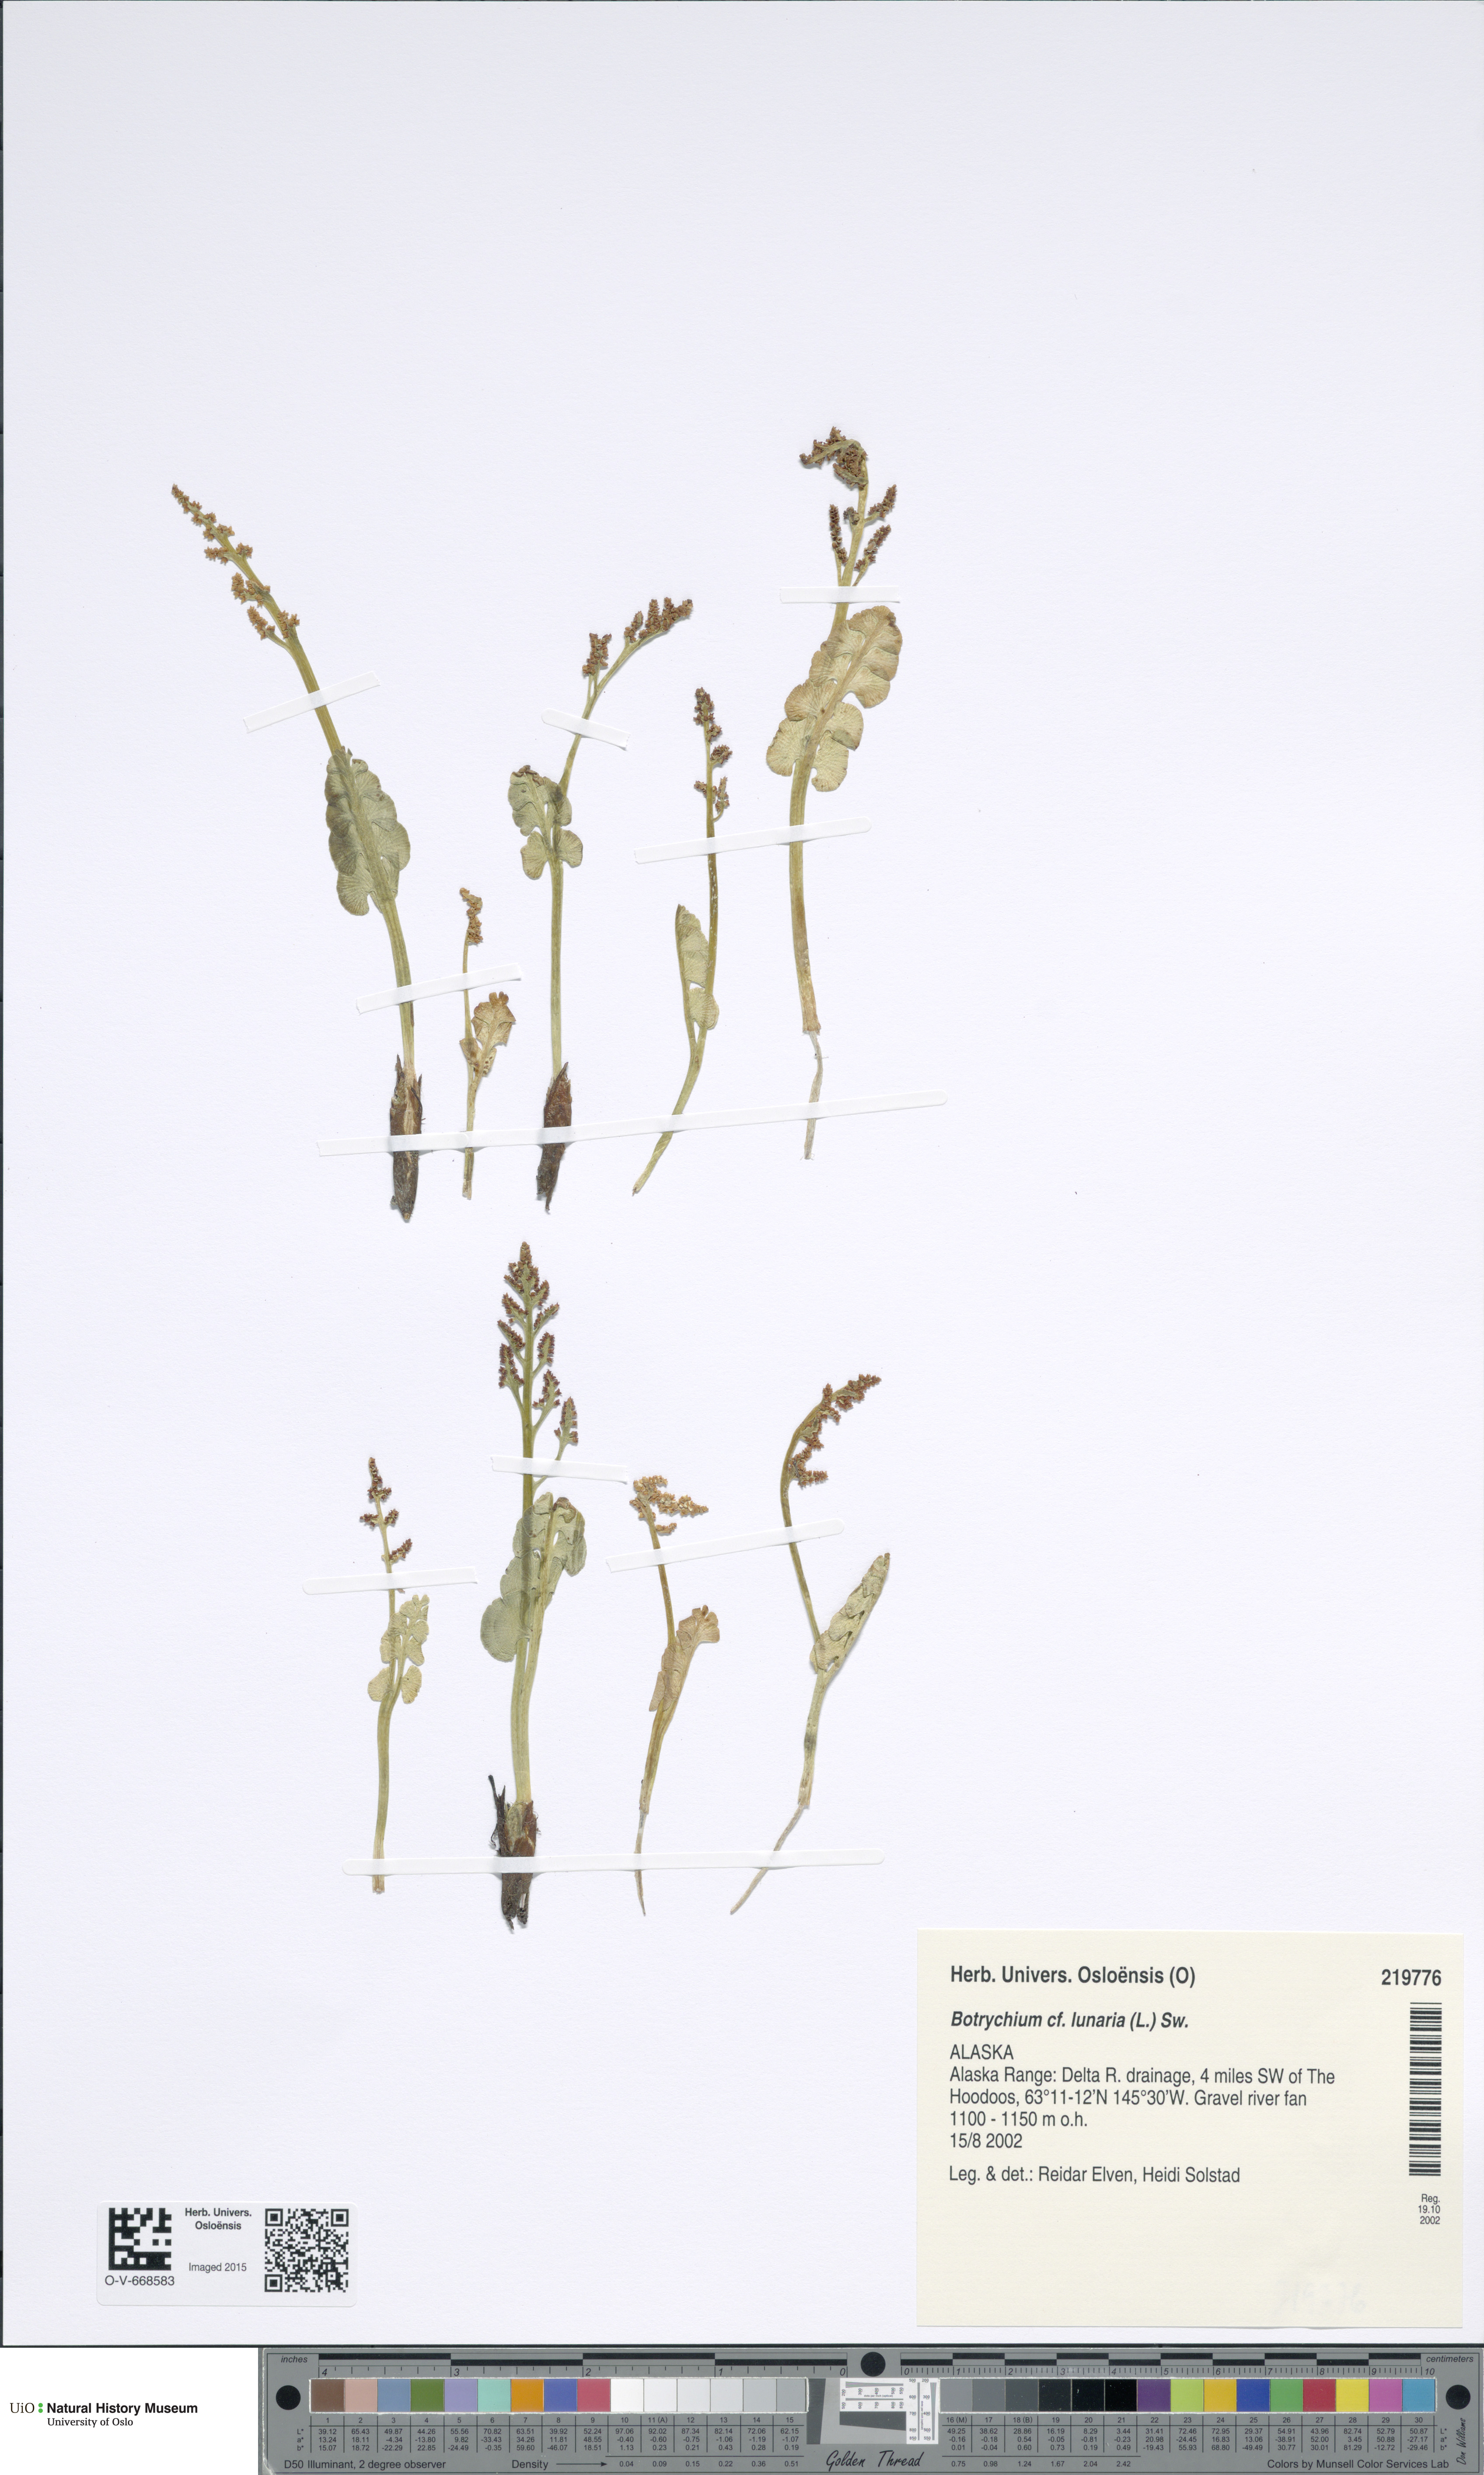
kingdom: Plantae
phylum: Tracheophyta
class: Polypodiopsida
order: Ophioglossales
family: Ophioglossaceae
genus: Botrychium
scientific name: Botrychium lunaria
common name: Moonwort
